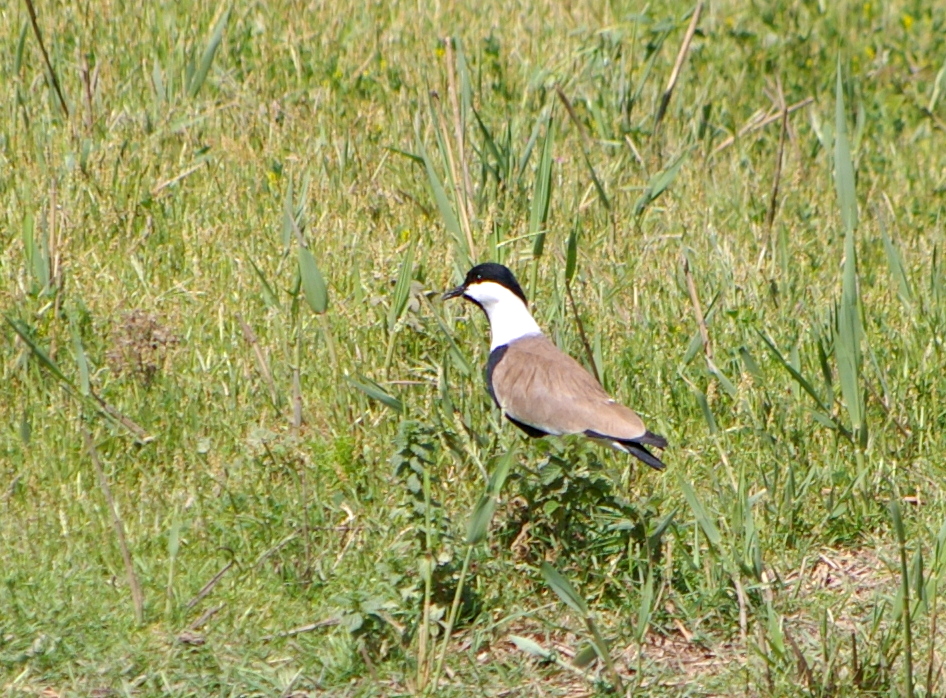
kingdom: Animalia
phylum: Chordata
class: Aves
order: Charadriiformes
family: Charadriidae
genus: Vanellus
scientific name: Vanellus spinosus
